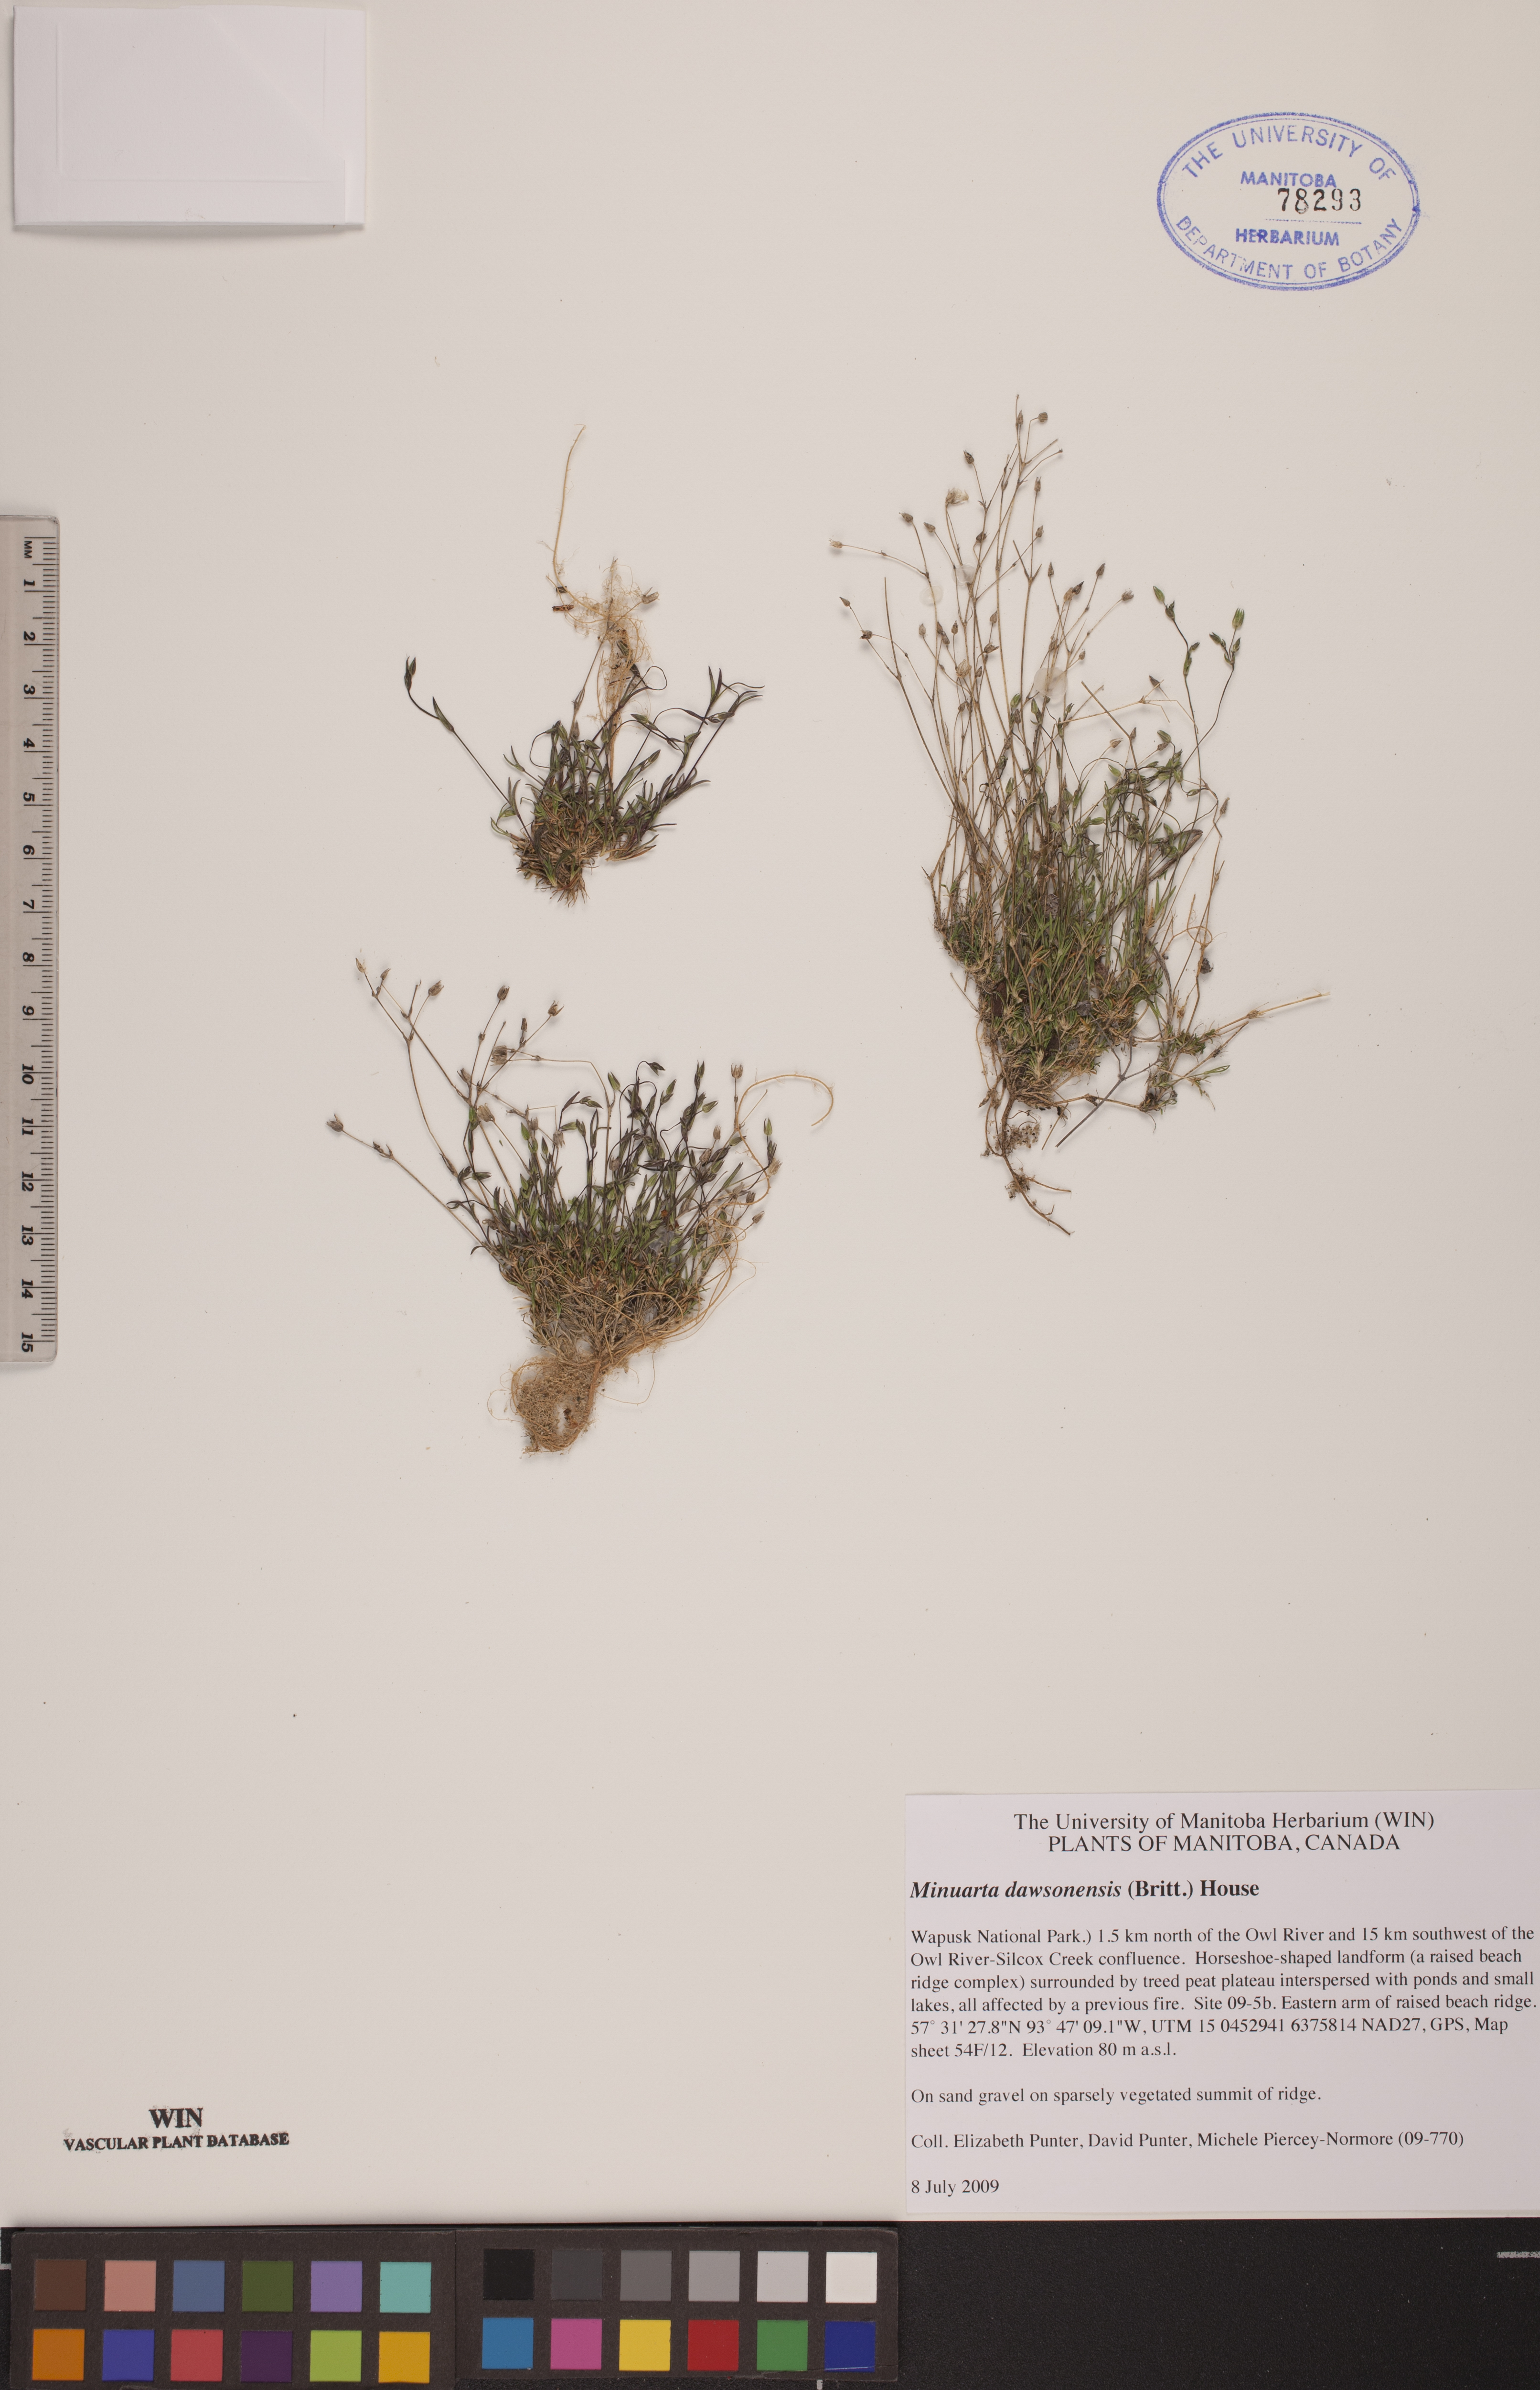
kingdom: Plantae
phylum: Tracheophyta
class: Magnoliopsida
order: Caryophyllales
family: Caryophyllaceae
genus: Sabulina
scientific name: Sabulina dawsonensis
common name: Dawson's cockle
